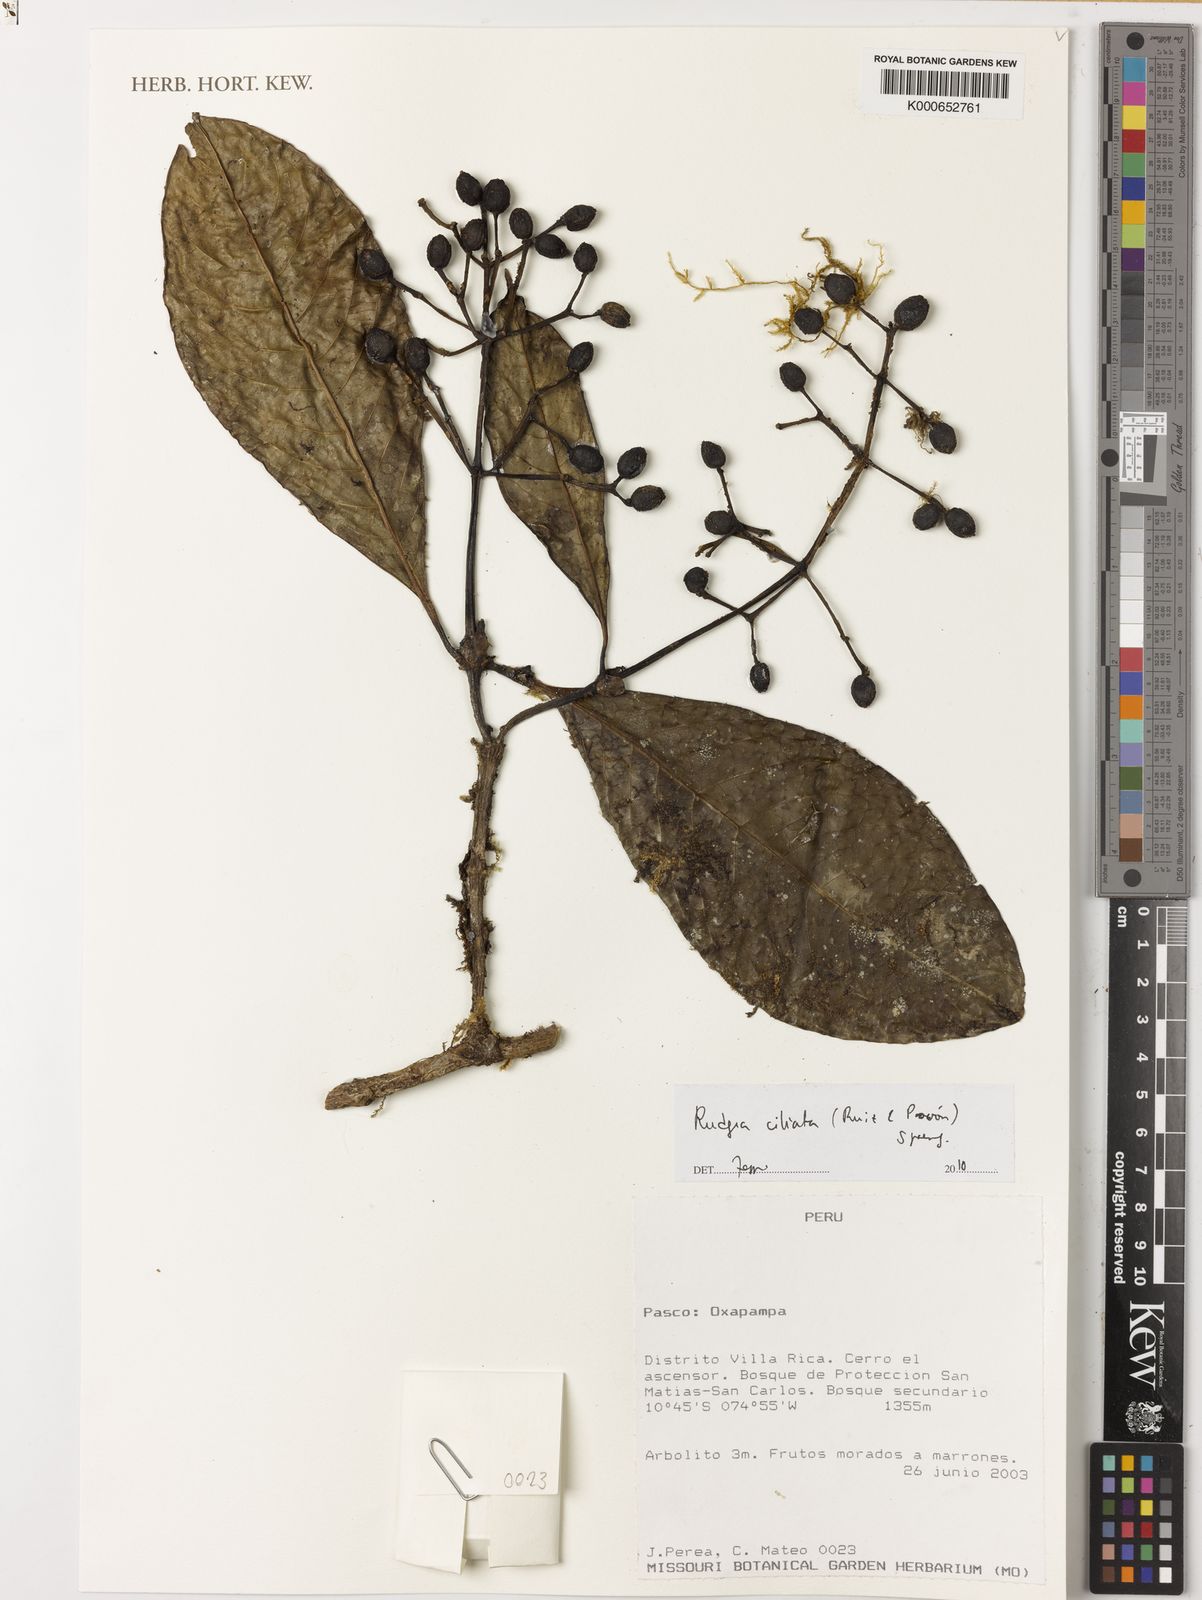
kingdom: Plantae
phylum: Tracheophyta
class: Magnoliopsida
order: Gentianales
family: Rubiaceae
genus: Rudgea
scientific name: Rudgea ciliata
